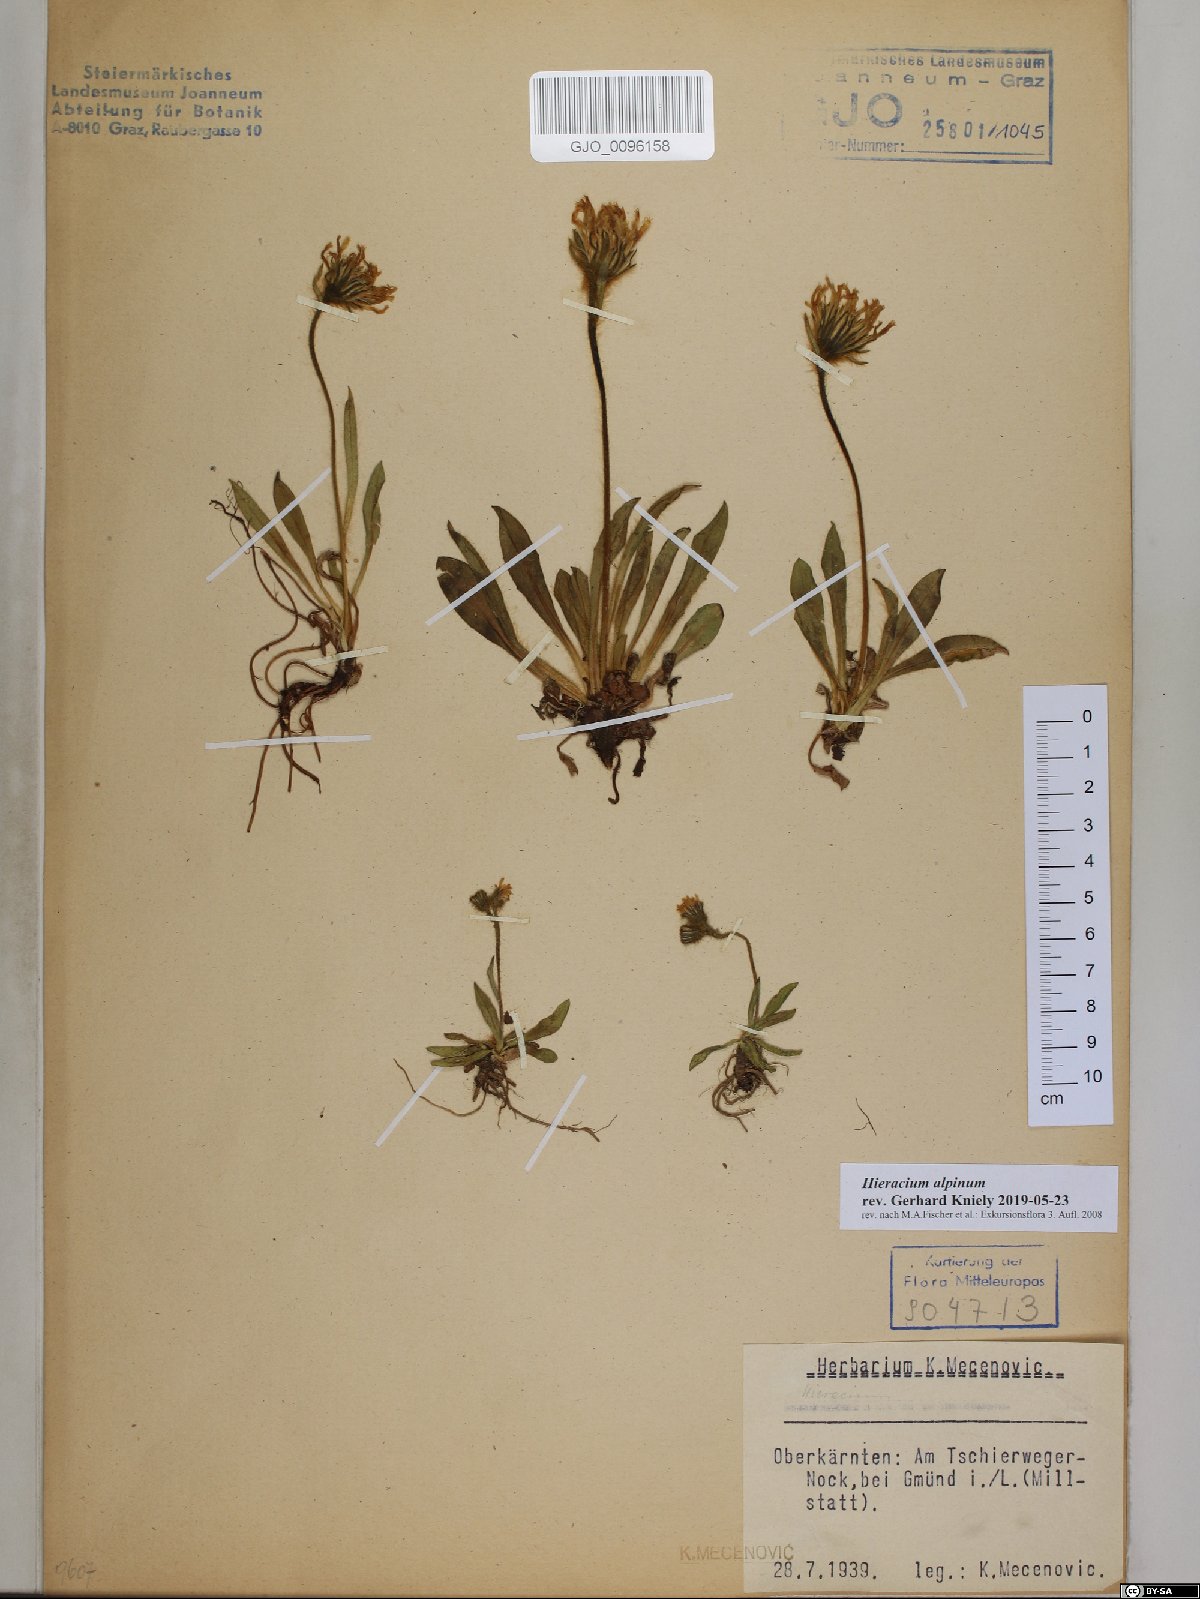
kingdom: Plantae
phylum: Tracheophyta
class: Magnoliopsida
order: Asterales
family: Asteraceae
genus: Hieracium
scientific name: Hieracium alpinum
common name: Alpine hawkweed
